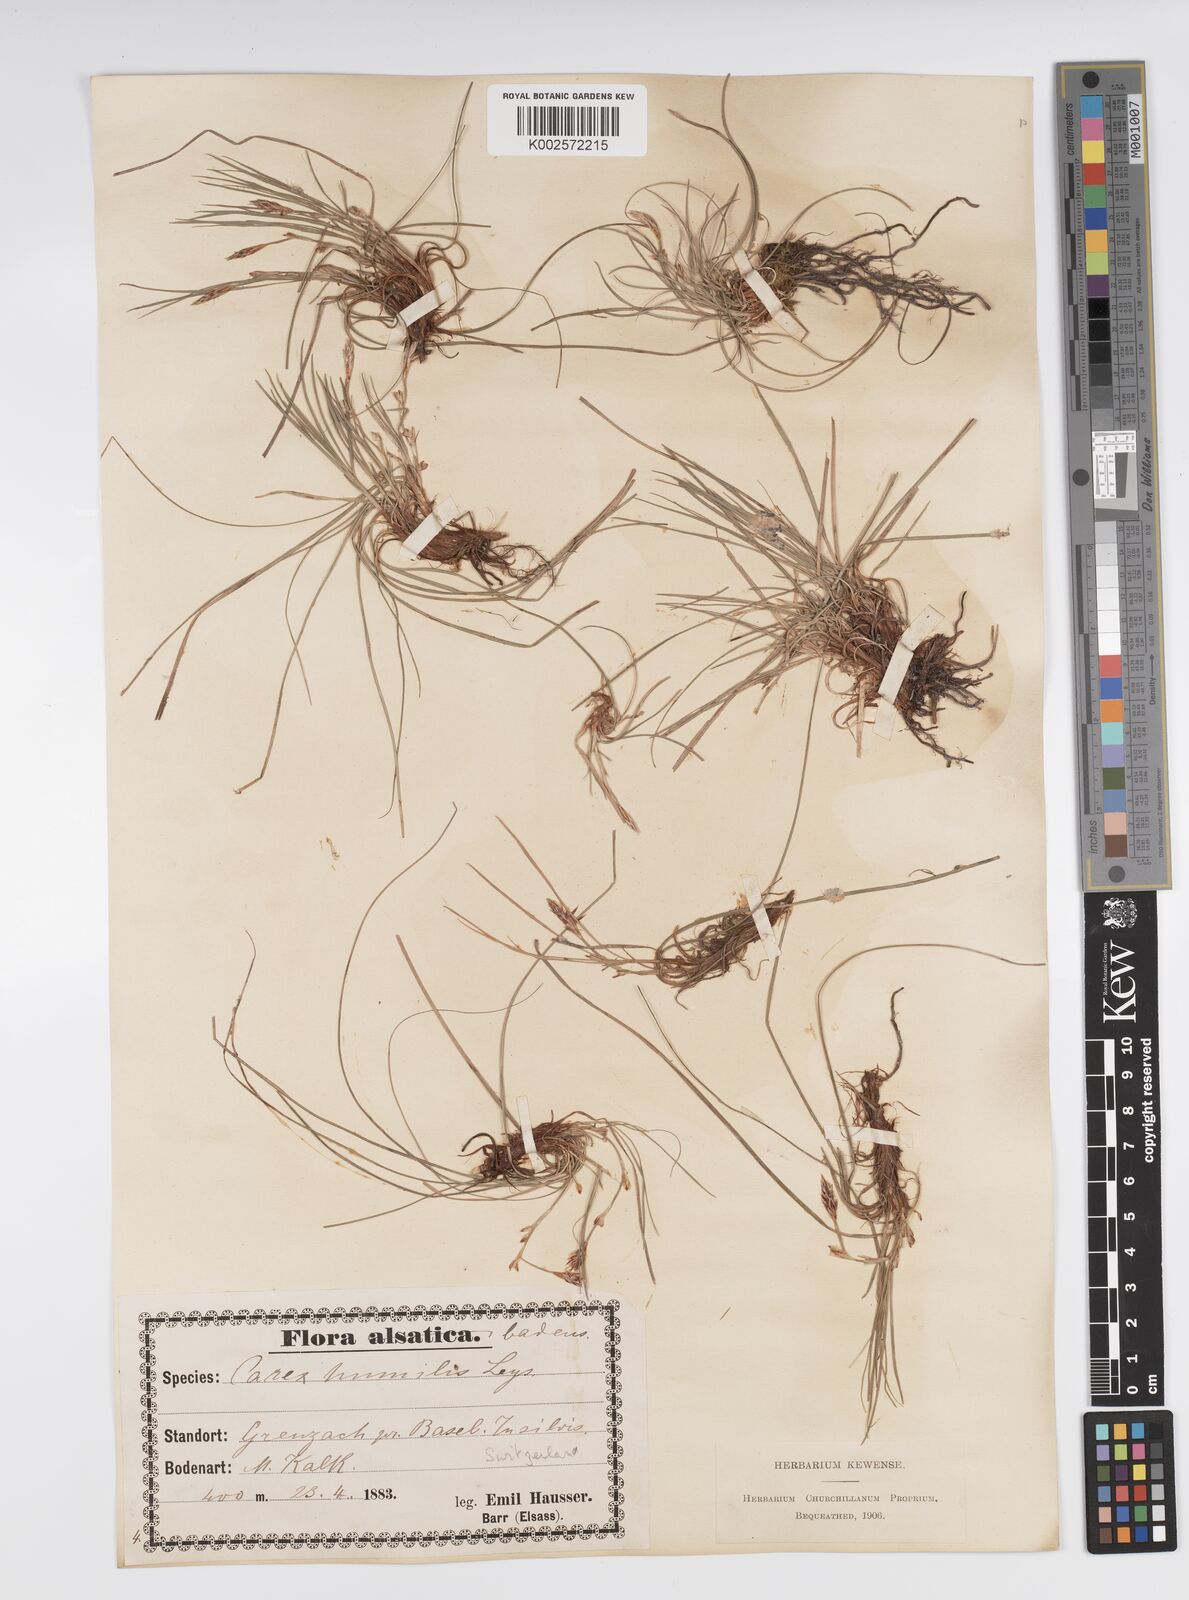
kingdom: Plantae
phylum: Tracheophyta
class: Liliopsida
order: Poales
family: Cyperaceae
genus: Carex
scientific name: Carex humilis
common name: Dwarf sedge
